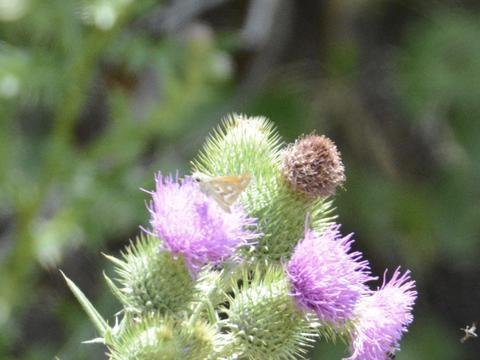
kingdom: Animalia
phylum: Arthropoda
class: Insecta
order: Lepidoptera
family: Hesperiidae
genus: Hesperia
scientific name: Hesperia comma
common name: Western Branded Skipper
